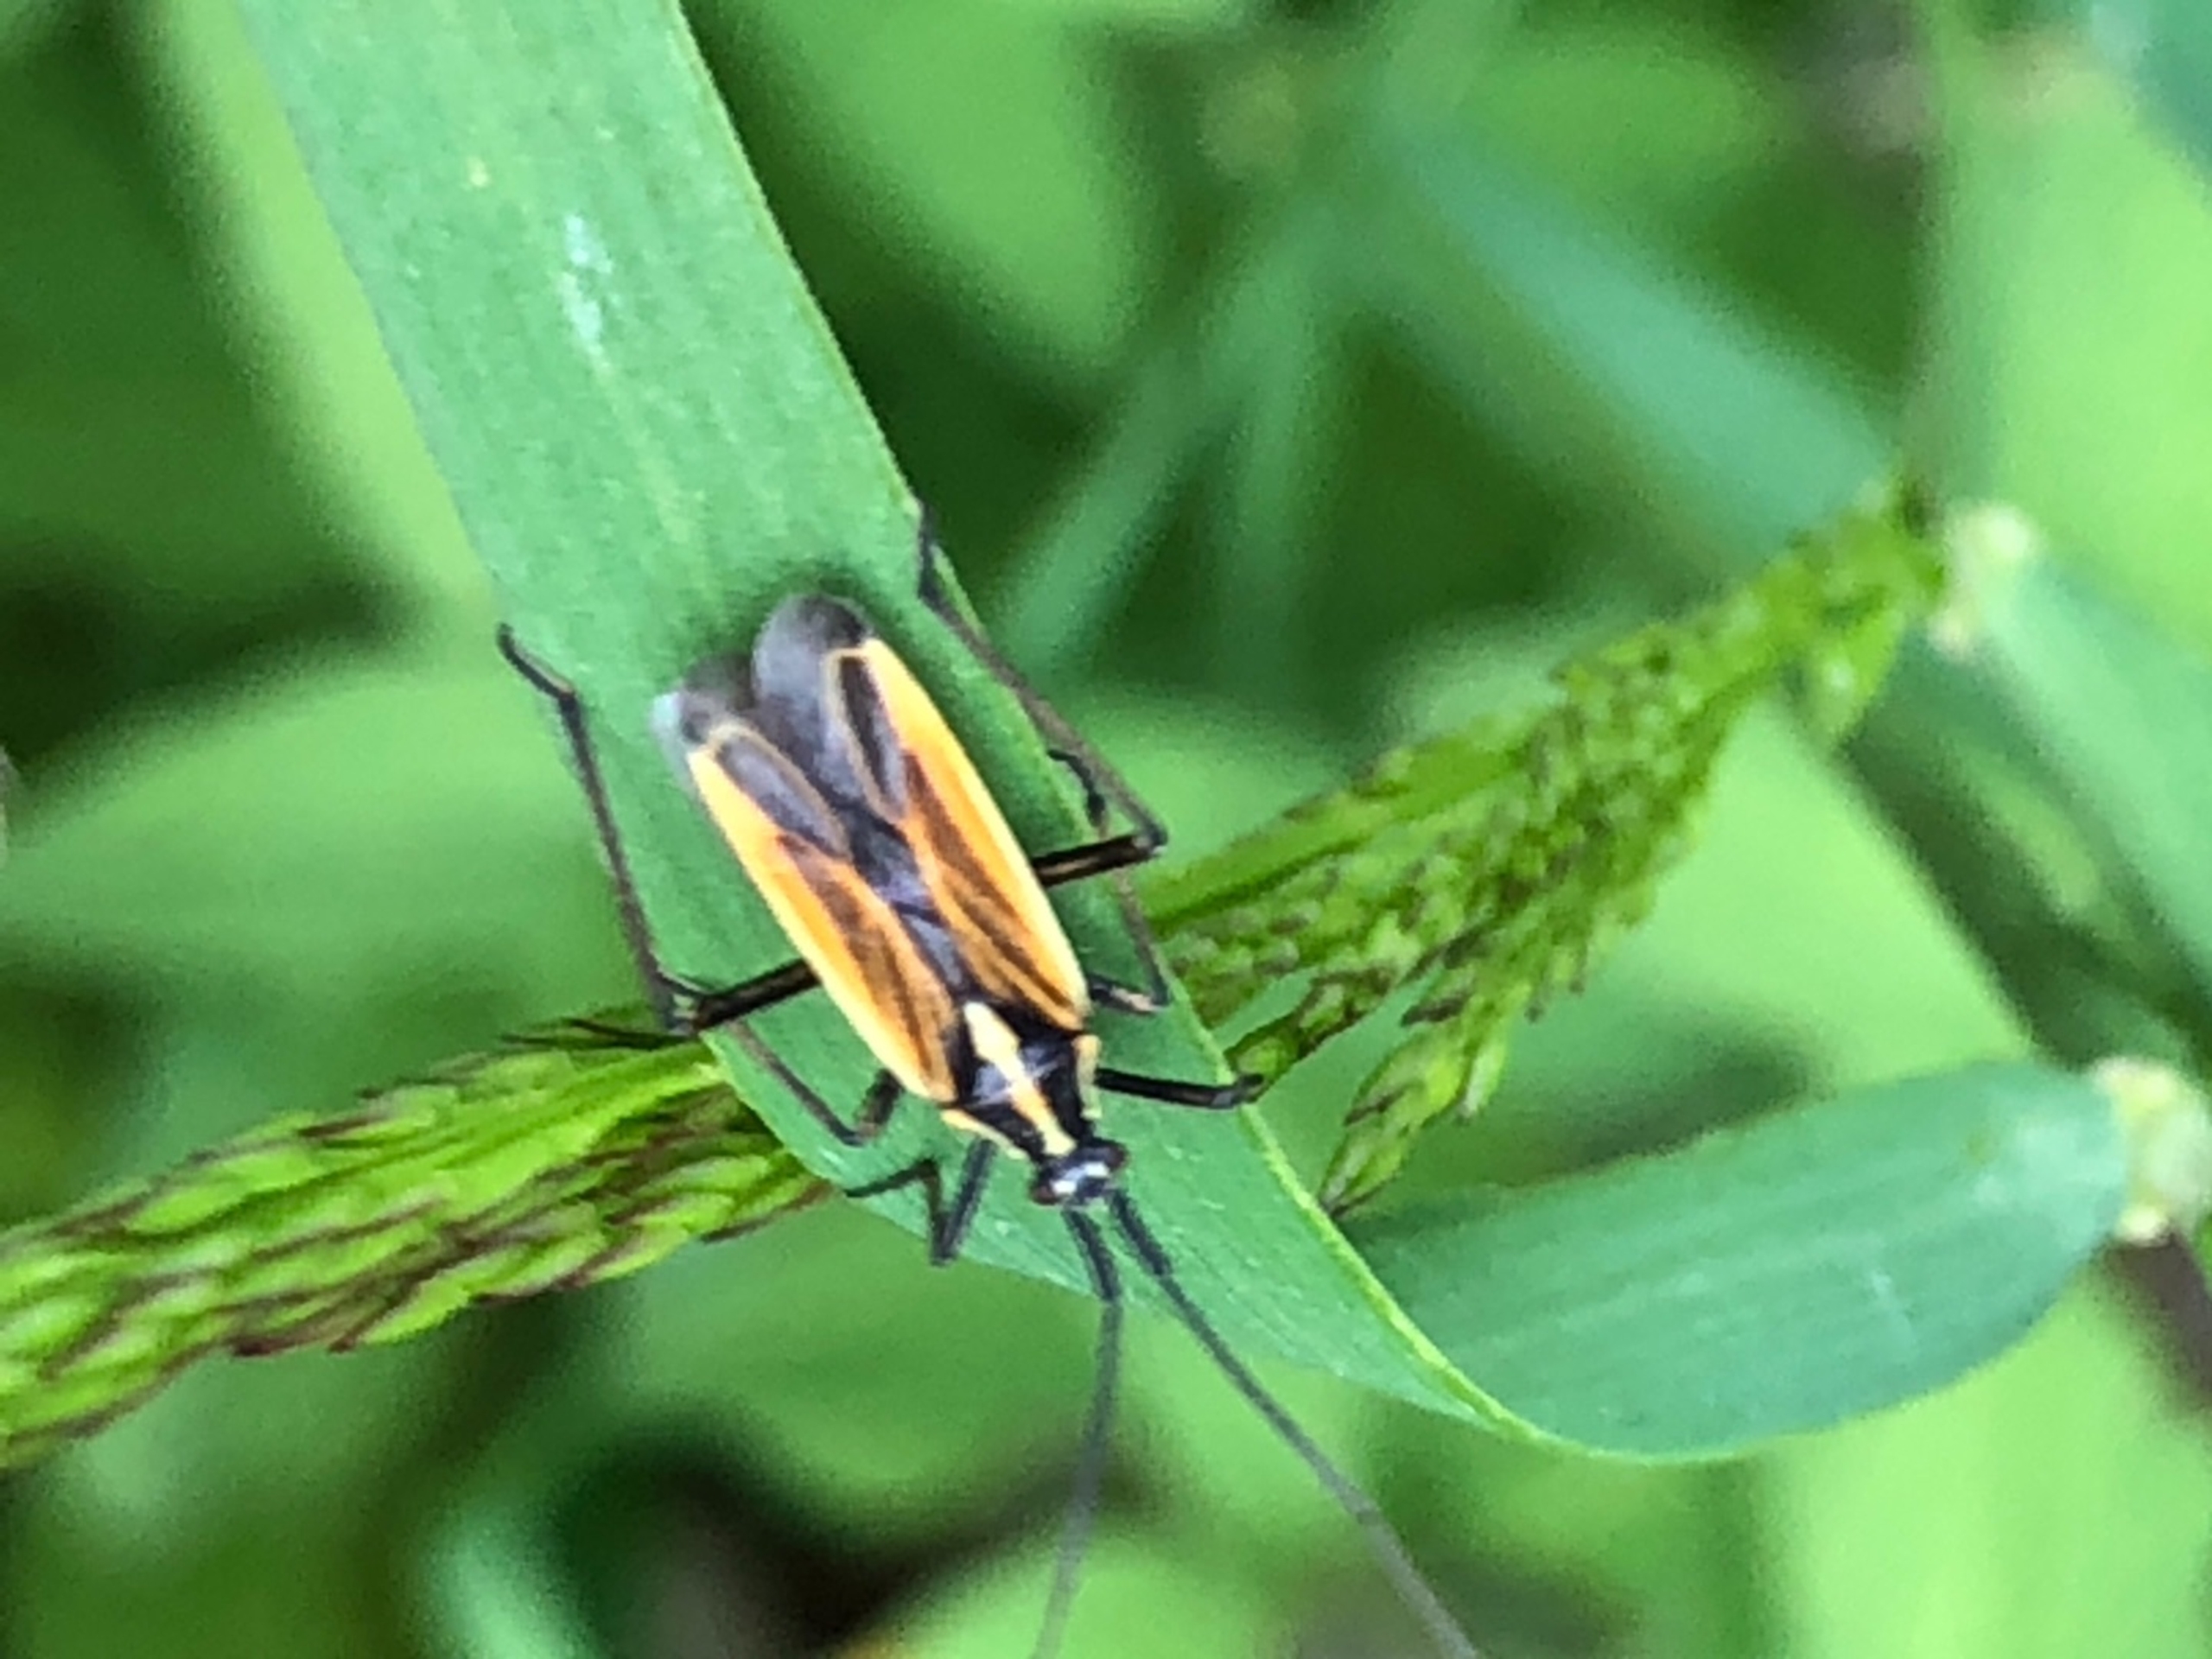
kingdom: Animalia
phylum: Arthropoda
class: Insecta
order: Hemiptera
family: Miridae
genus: Leptopterna
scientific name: Leptopterna dolabrata
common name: Almindelig græstæge
